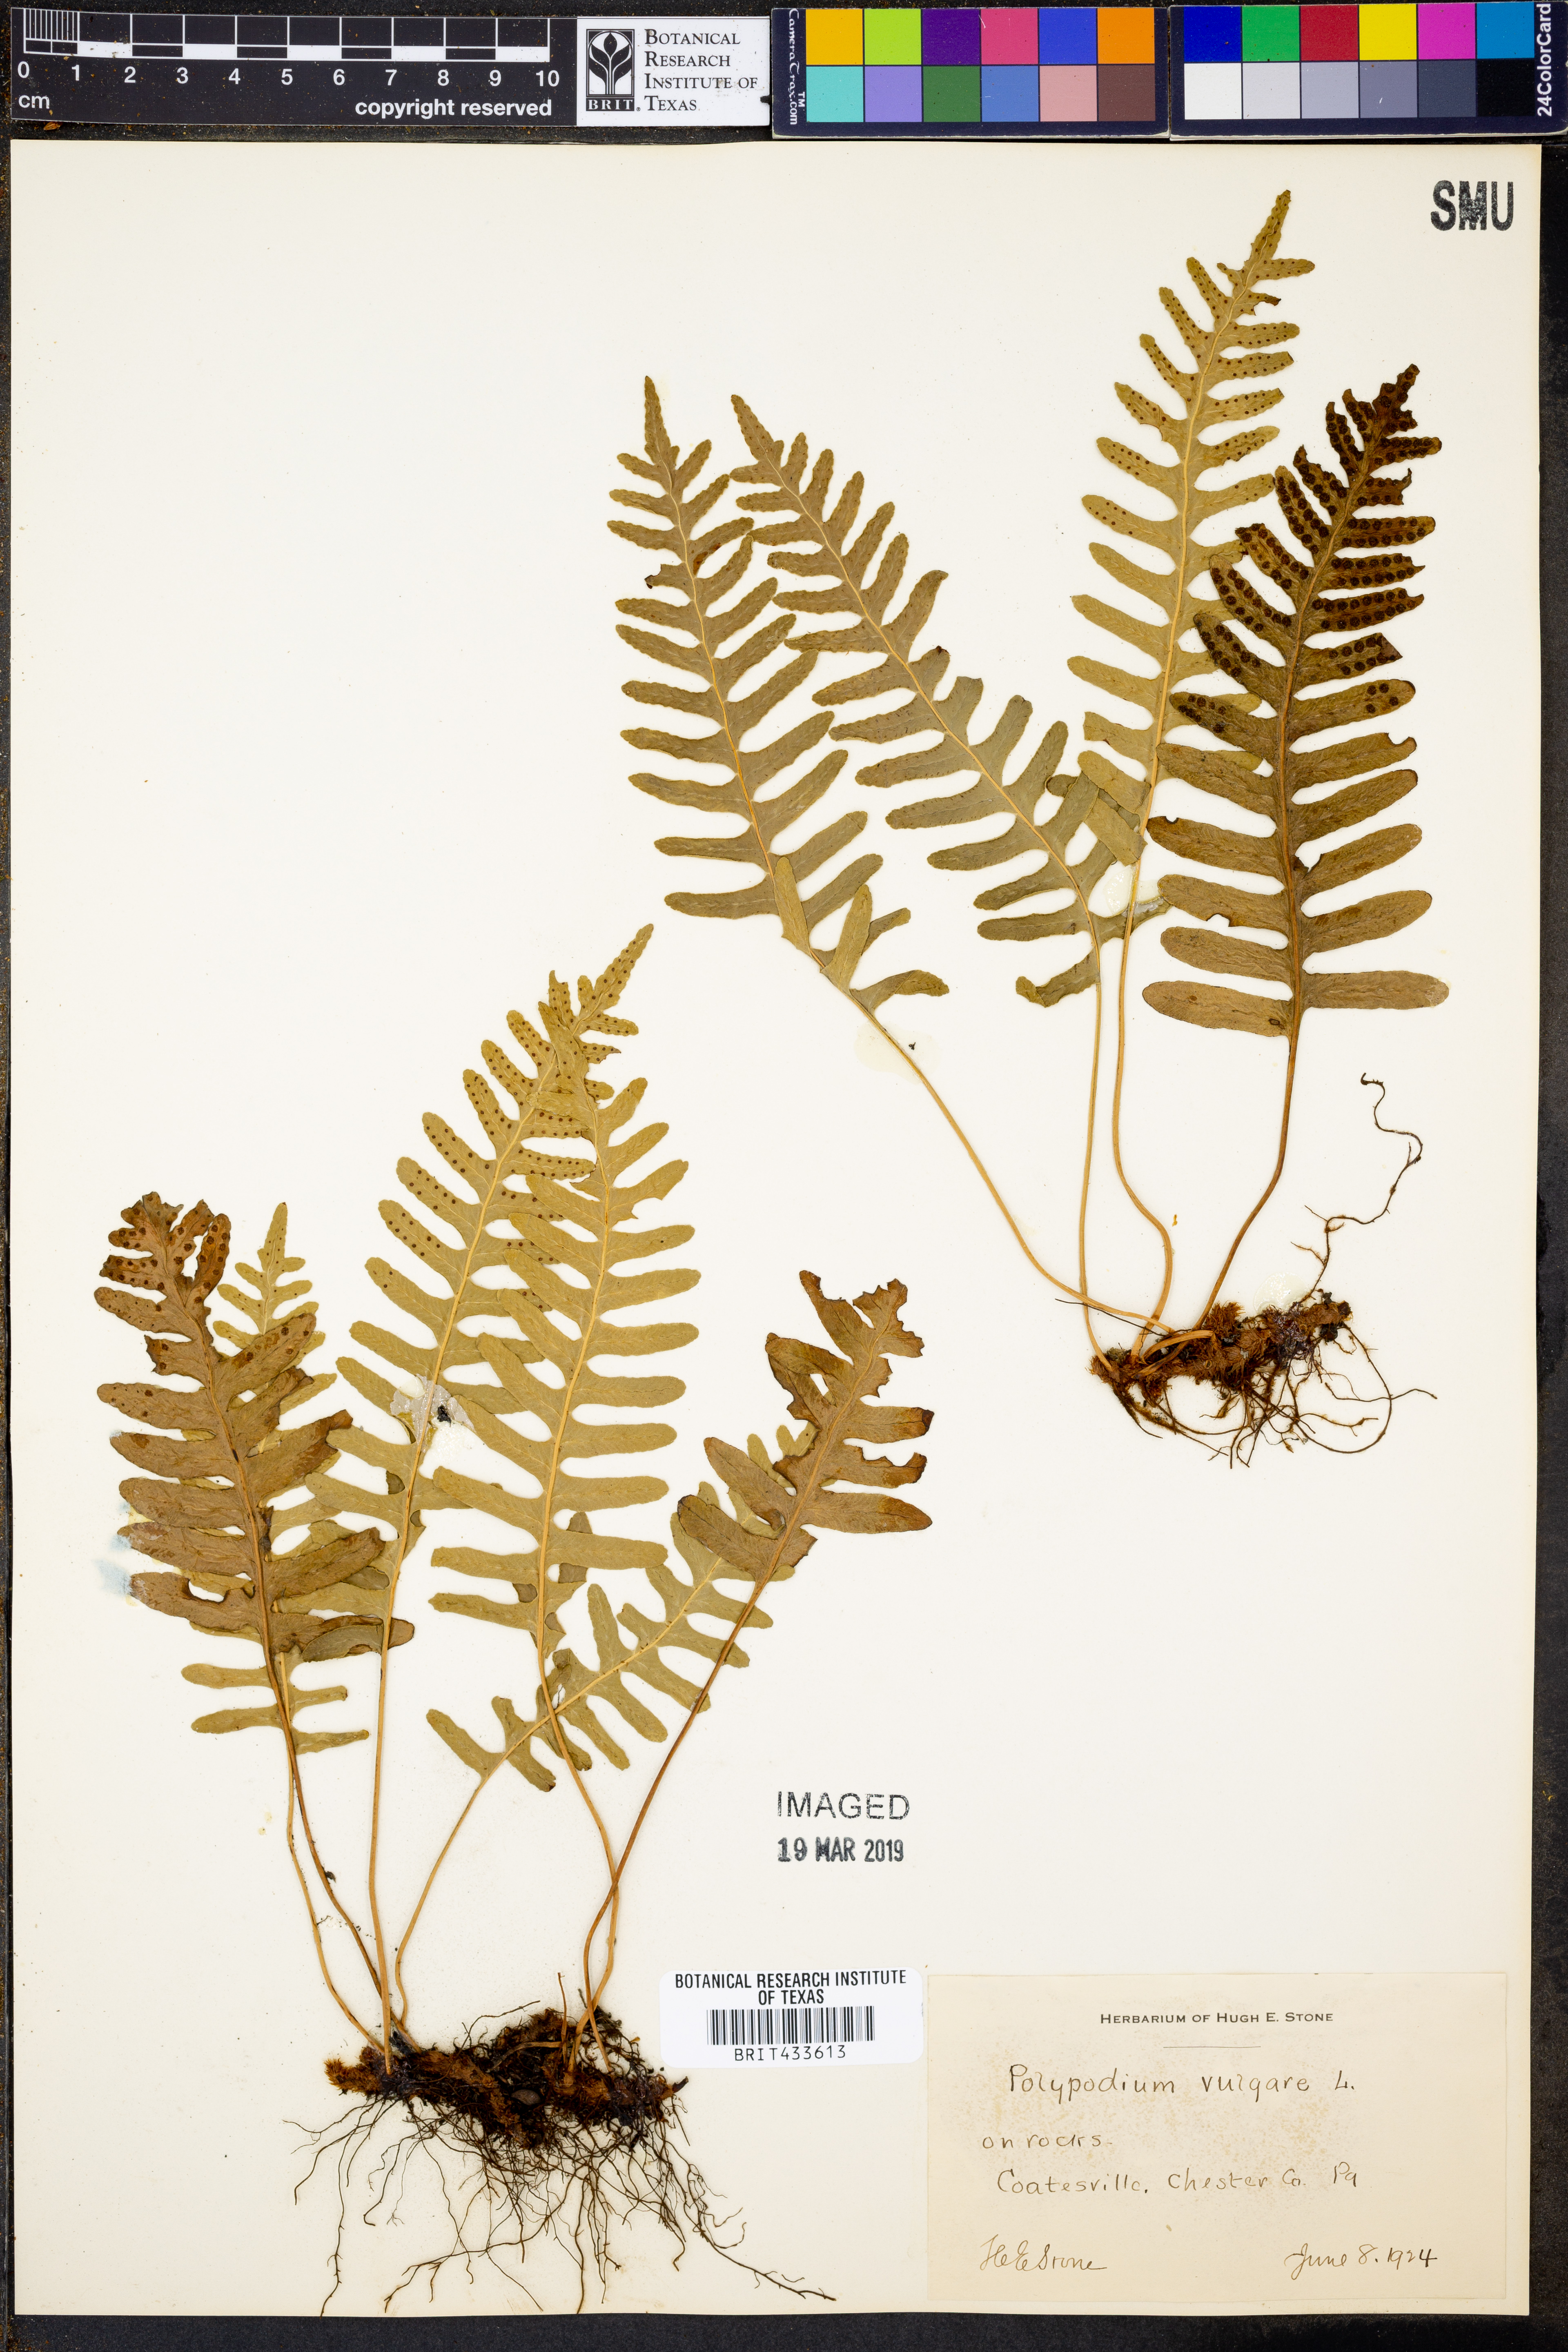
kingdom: Plantae
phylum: Tracheophyta
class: Polypodiopsida
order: Polypodiales
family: Polypodiaceae
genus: Polypodium
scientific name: Polypodium vulgare
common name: Common polypody
